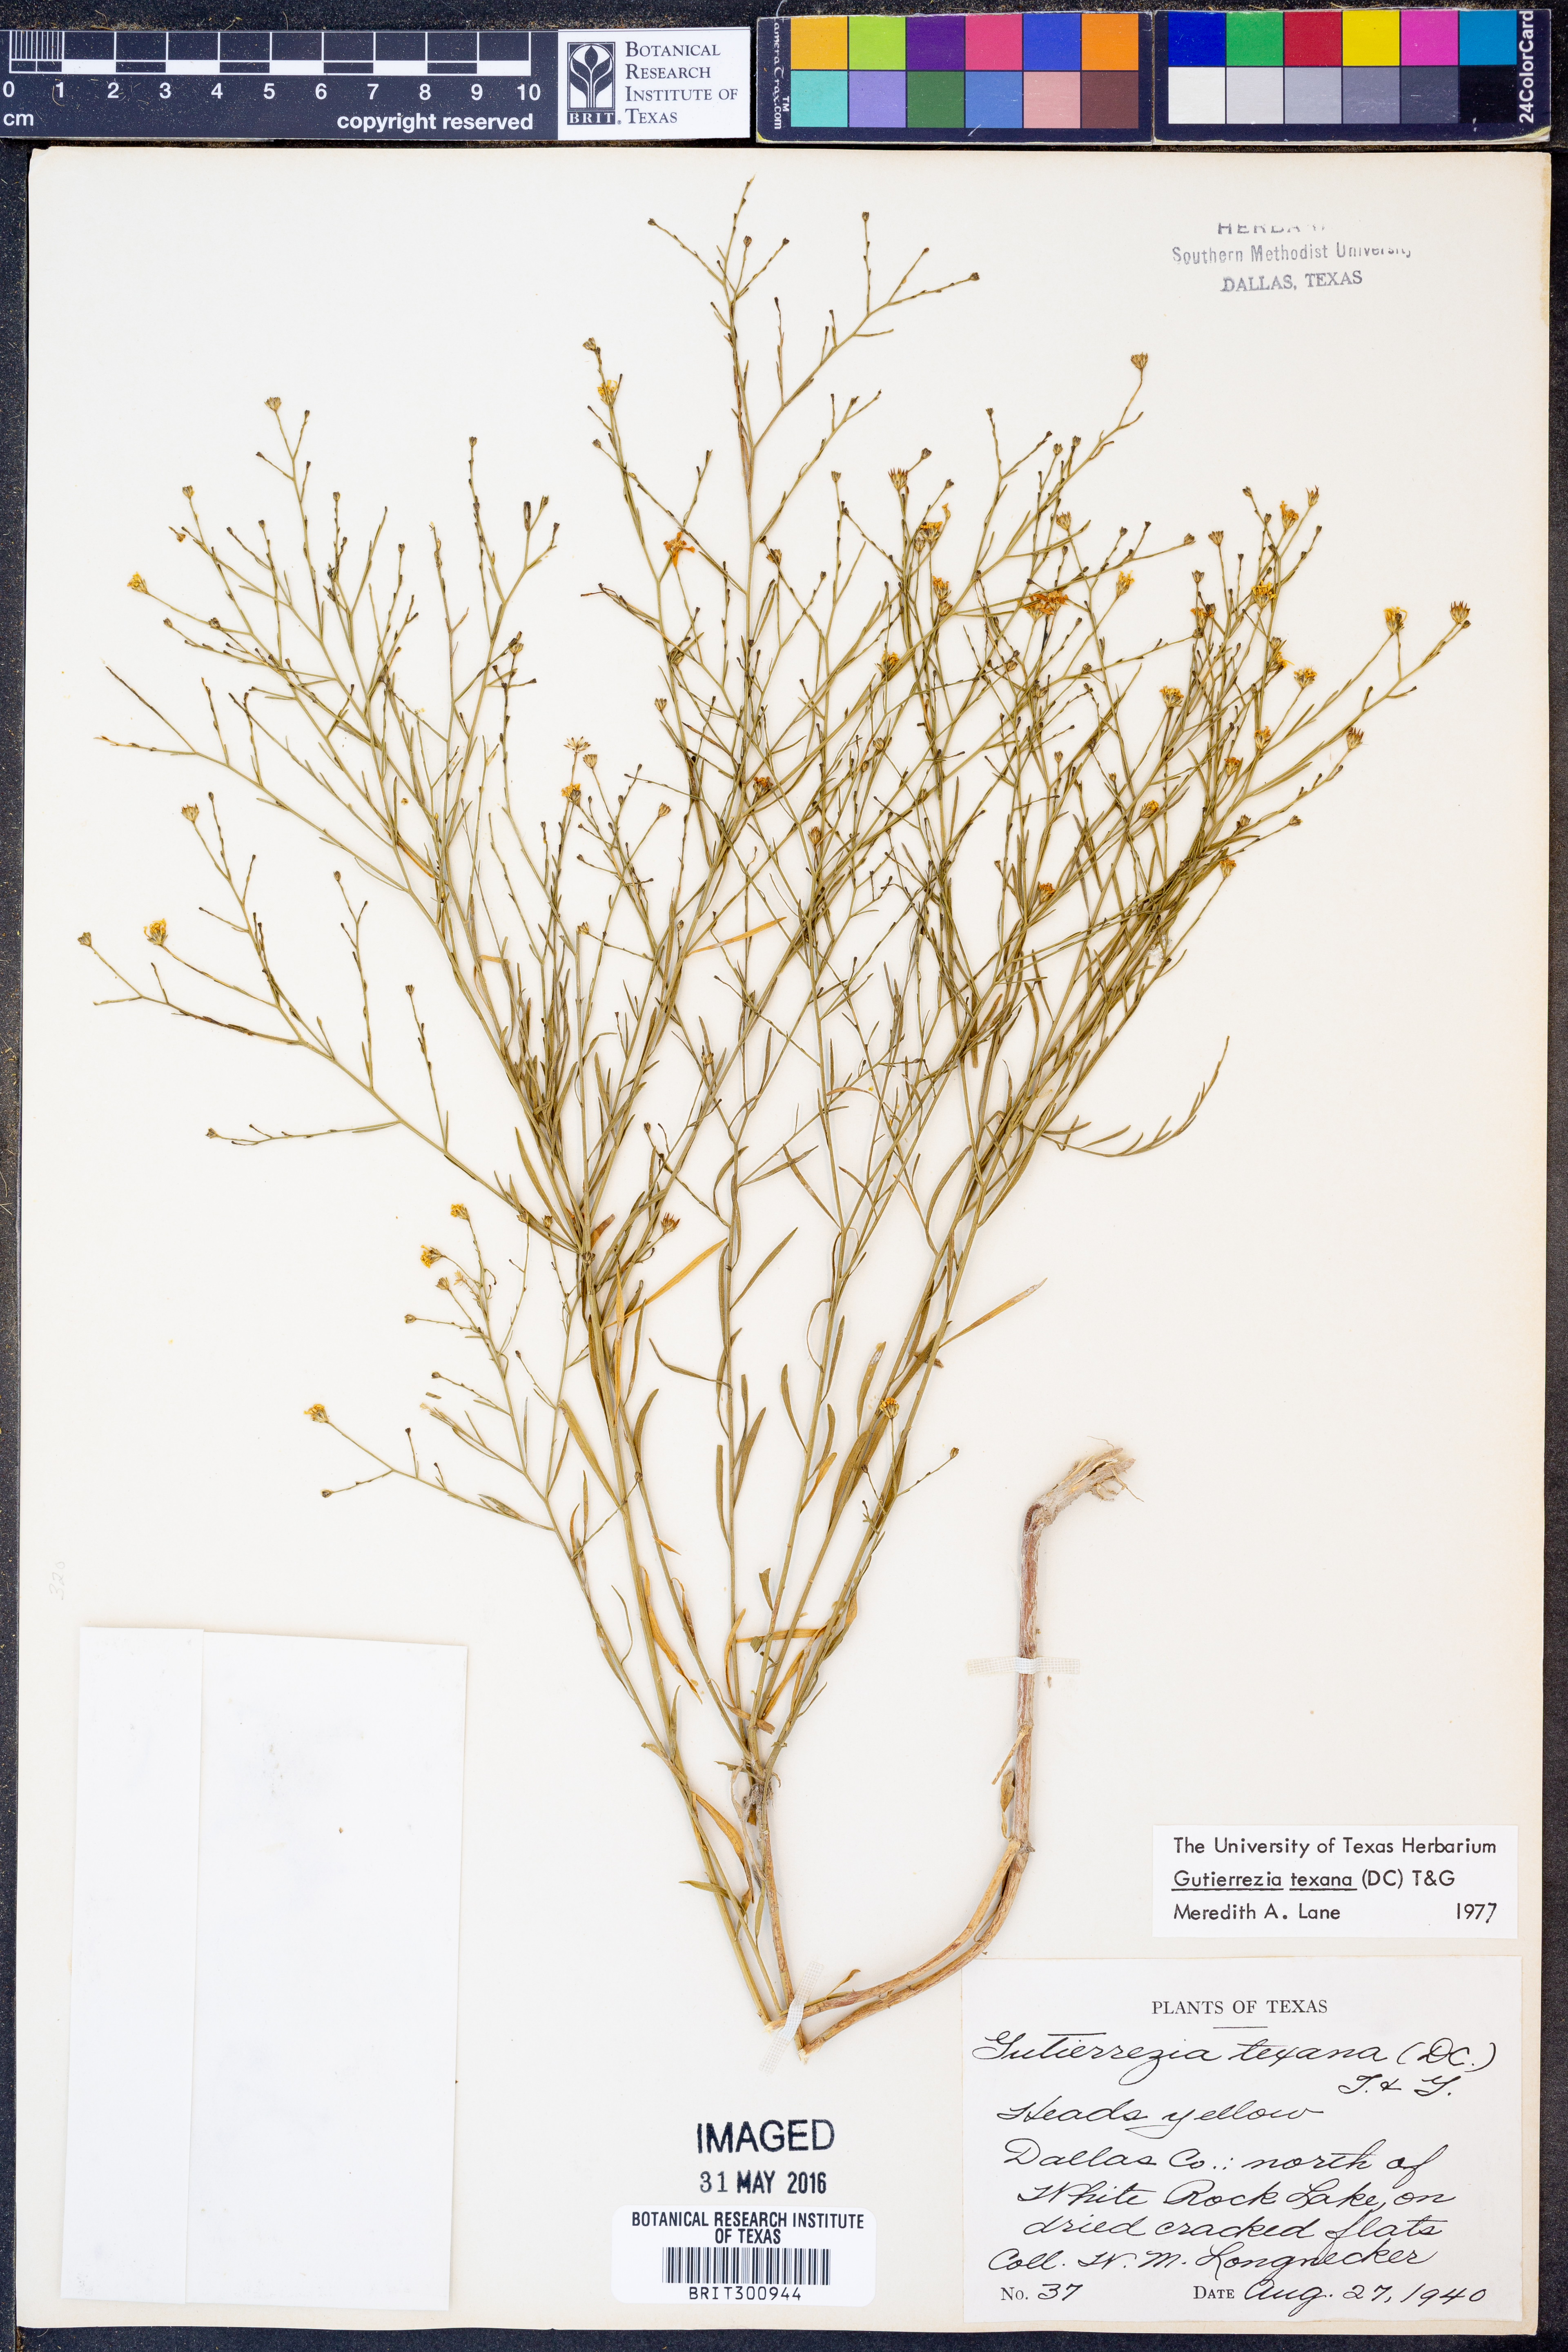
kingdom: Plantae
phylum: Tracheophyta
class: Magnoliopsida
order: Asterales
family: Asteraceae
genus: Gutierrezia
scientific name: Gutierrezia texana
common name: Texas snakeweed
